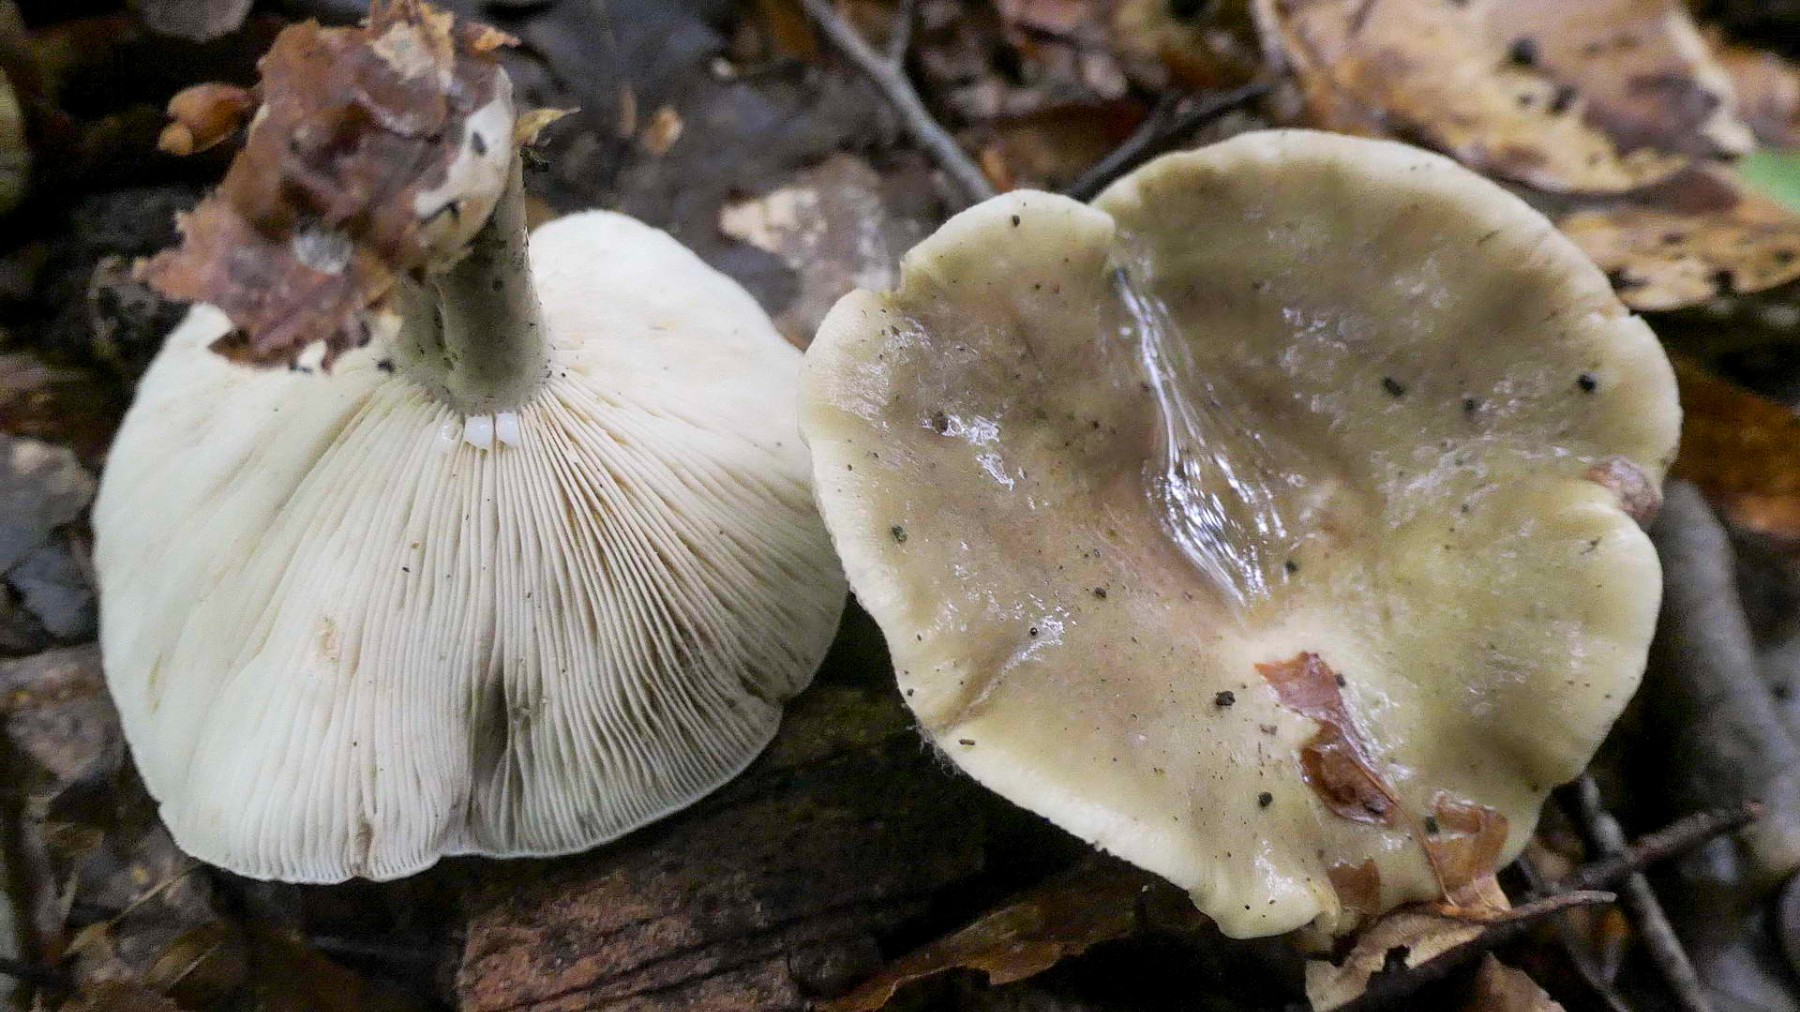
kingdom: Fungi
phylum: Basidiomycota
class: Agaricomycetes
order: Russulales
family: Russulaceae
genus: Lactarius
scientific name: Lactarius fluens
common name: lysrandet mælkehat
